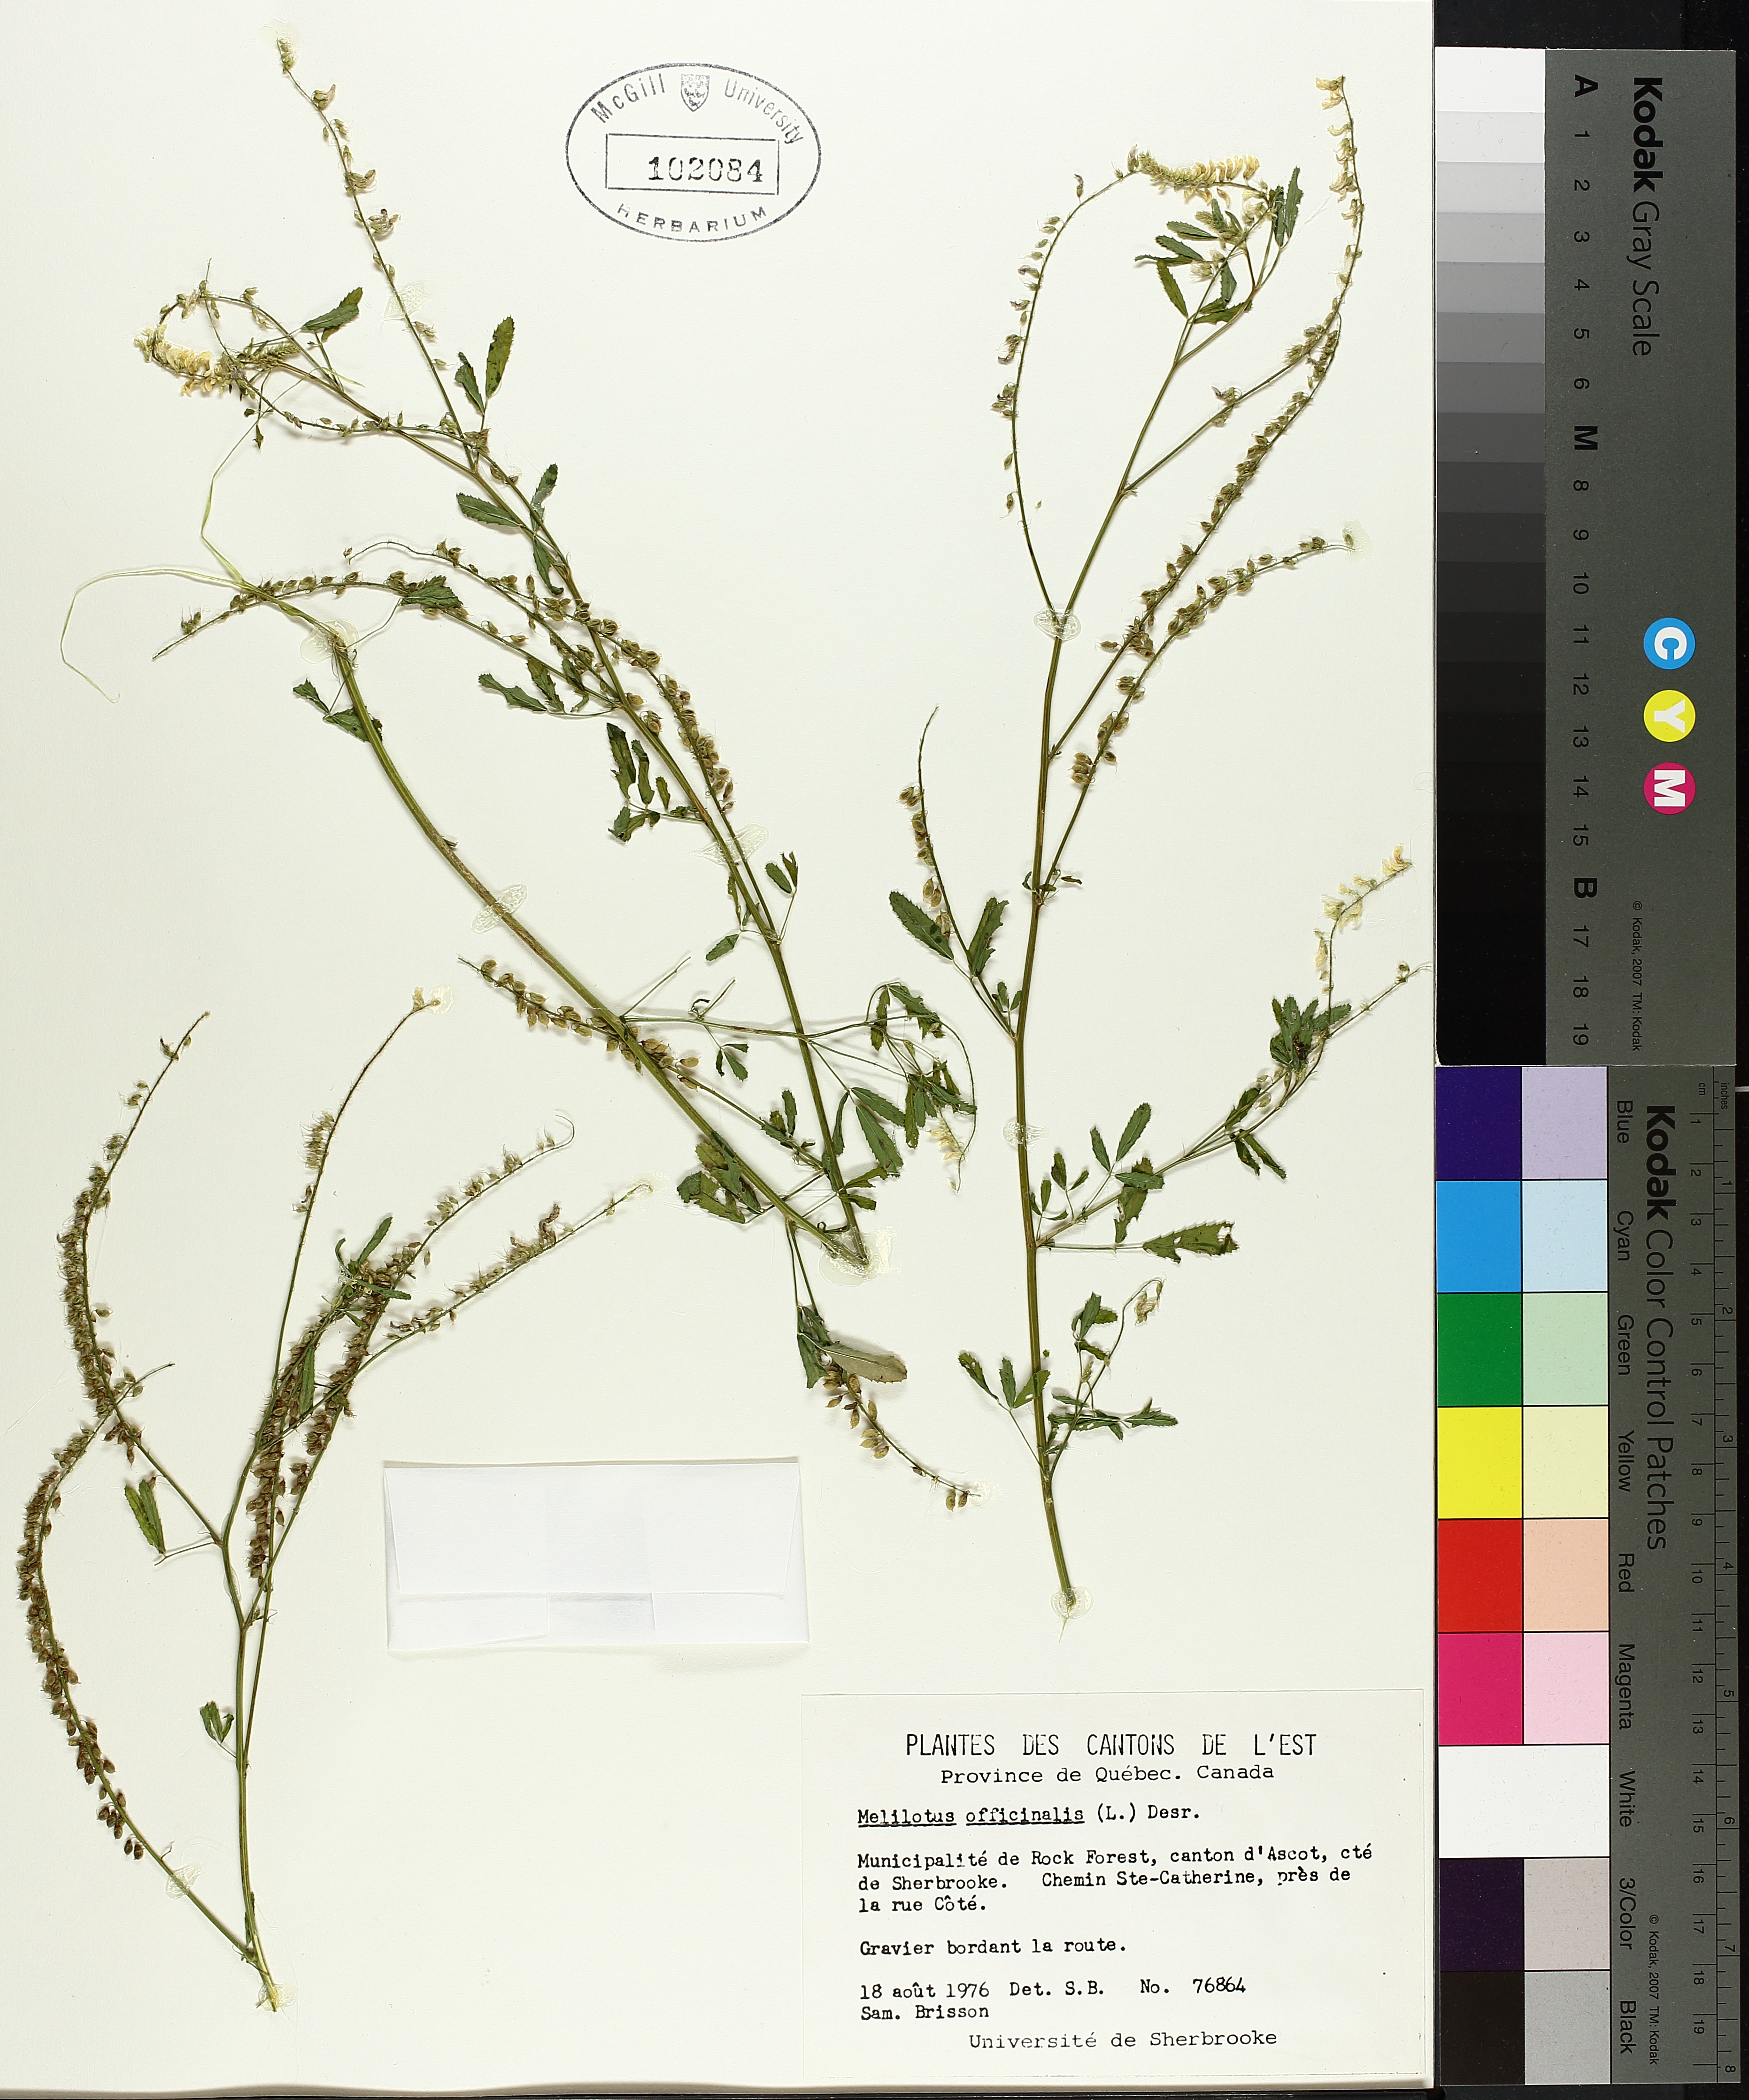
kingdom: Plantae
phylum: Tracheophyta
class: Magnoliopsida
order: Fabales
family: Fabaceae
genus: Melilotus
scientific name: Melilotus officinalis
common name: Sweetclover
